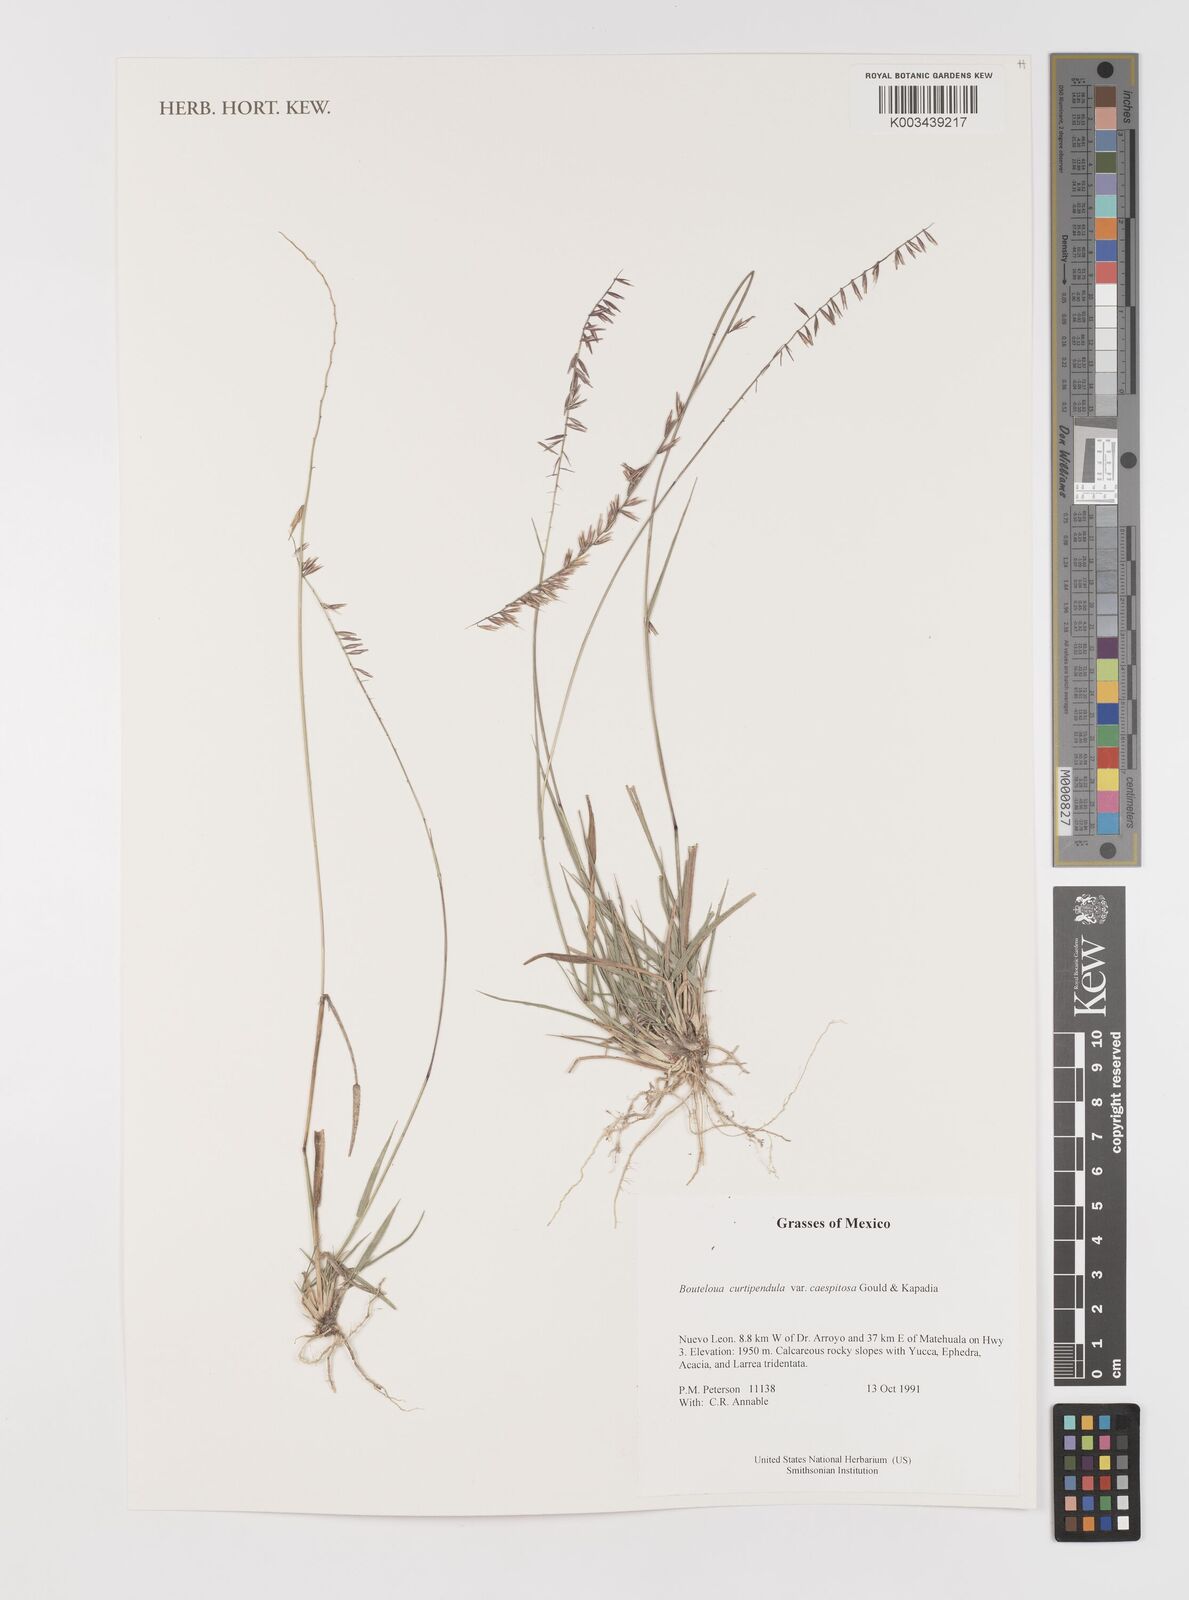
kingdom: Plantae
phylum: Tracheophyta
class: Liliopsida
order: Poales
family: Poaceae
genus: Bouteloua
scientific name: Bouteloua curtipendula
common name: Side-oats grama
